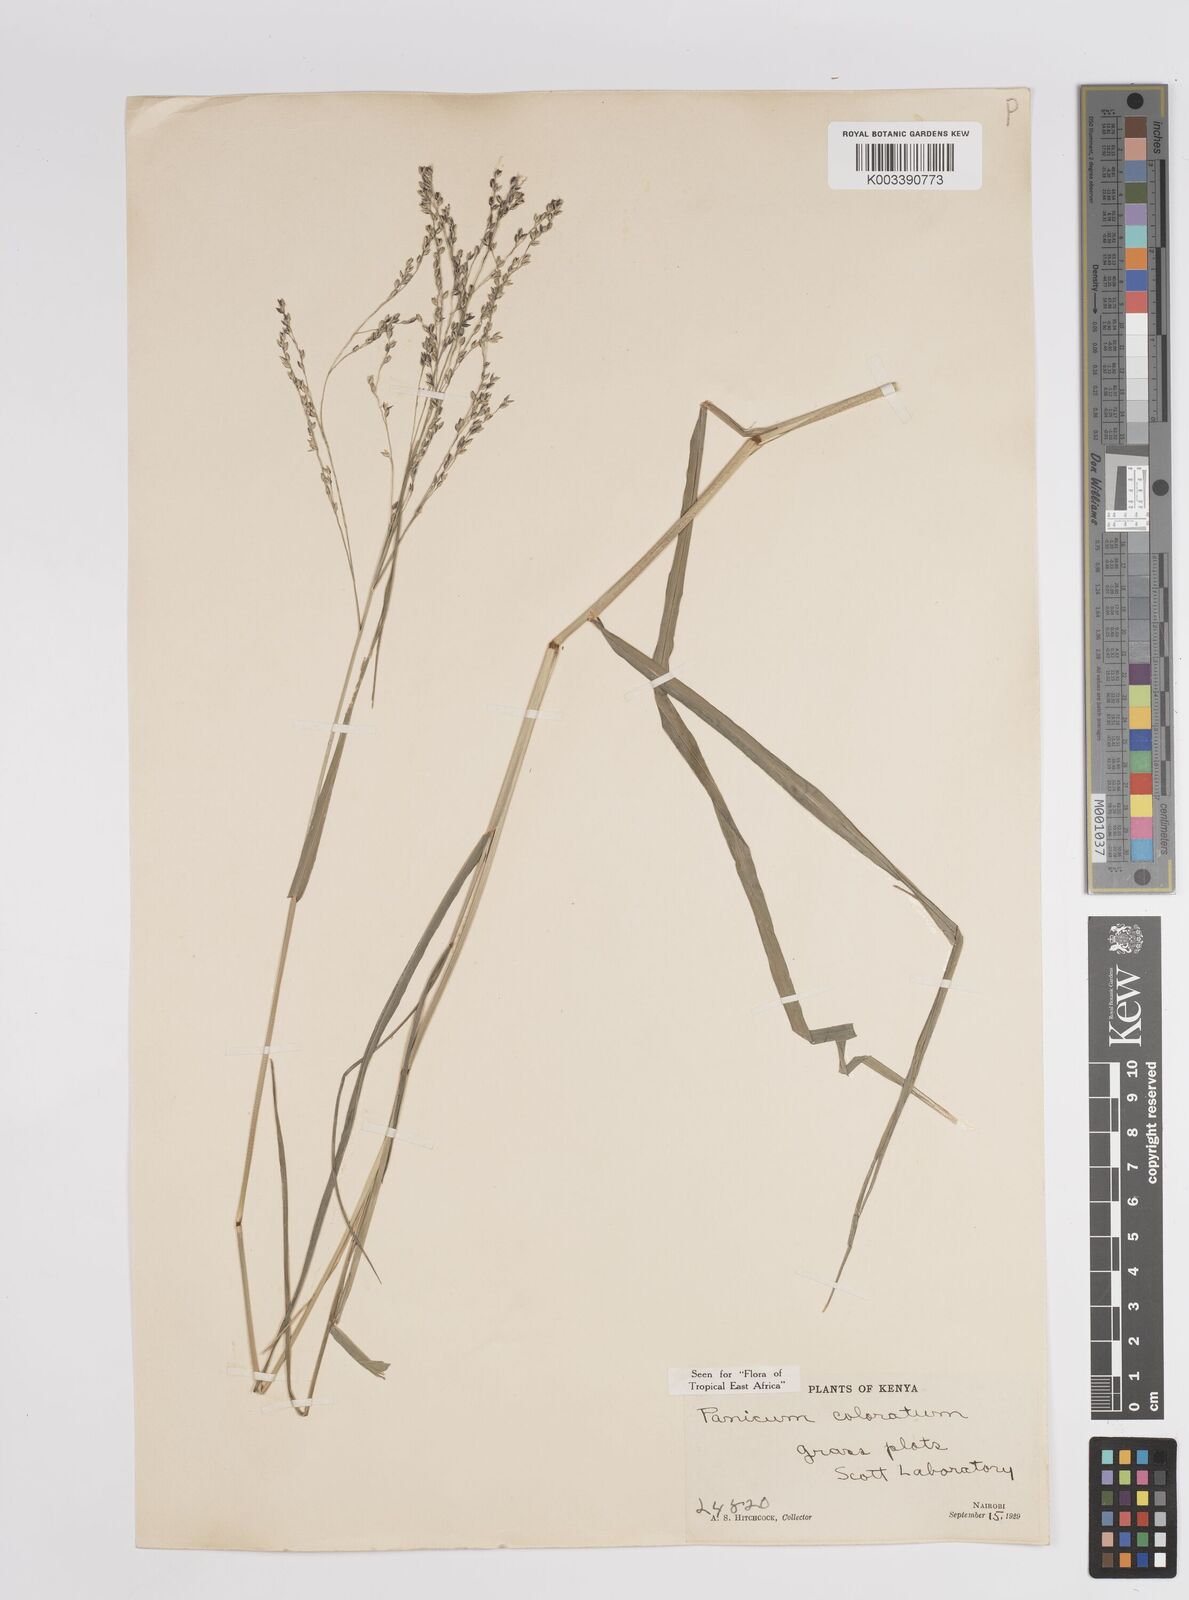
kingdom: Plantae
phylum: Tracheophyta
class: Liliopsida
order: Poales
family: Poaceae
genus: Panicum
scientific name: Panicum coloratum
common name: Kleingrass
